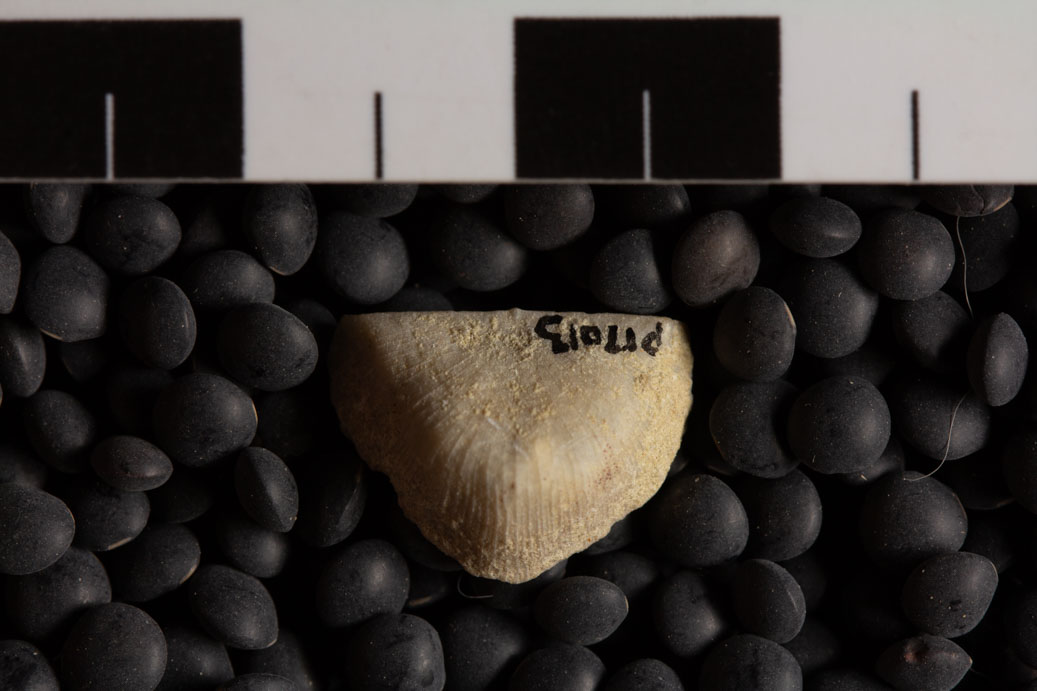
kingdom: Animalia
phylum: Brachiopoda
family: Strophomenidae
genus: Strophomena
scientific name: Strophomena
